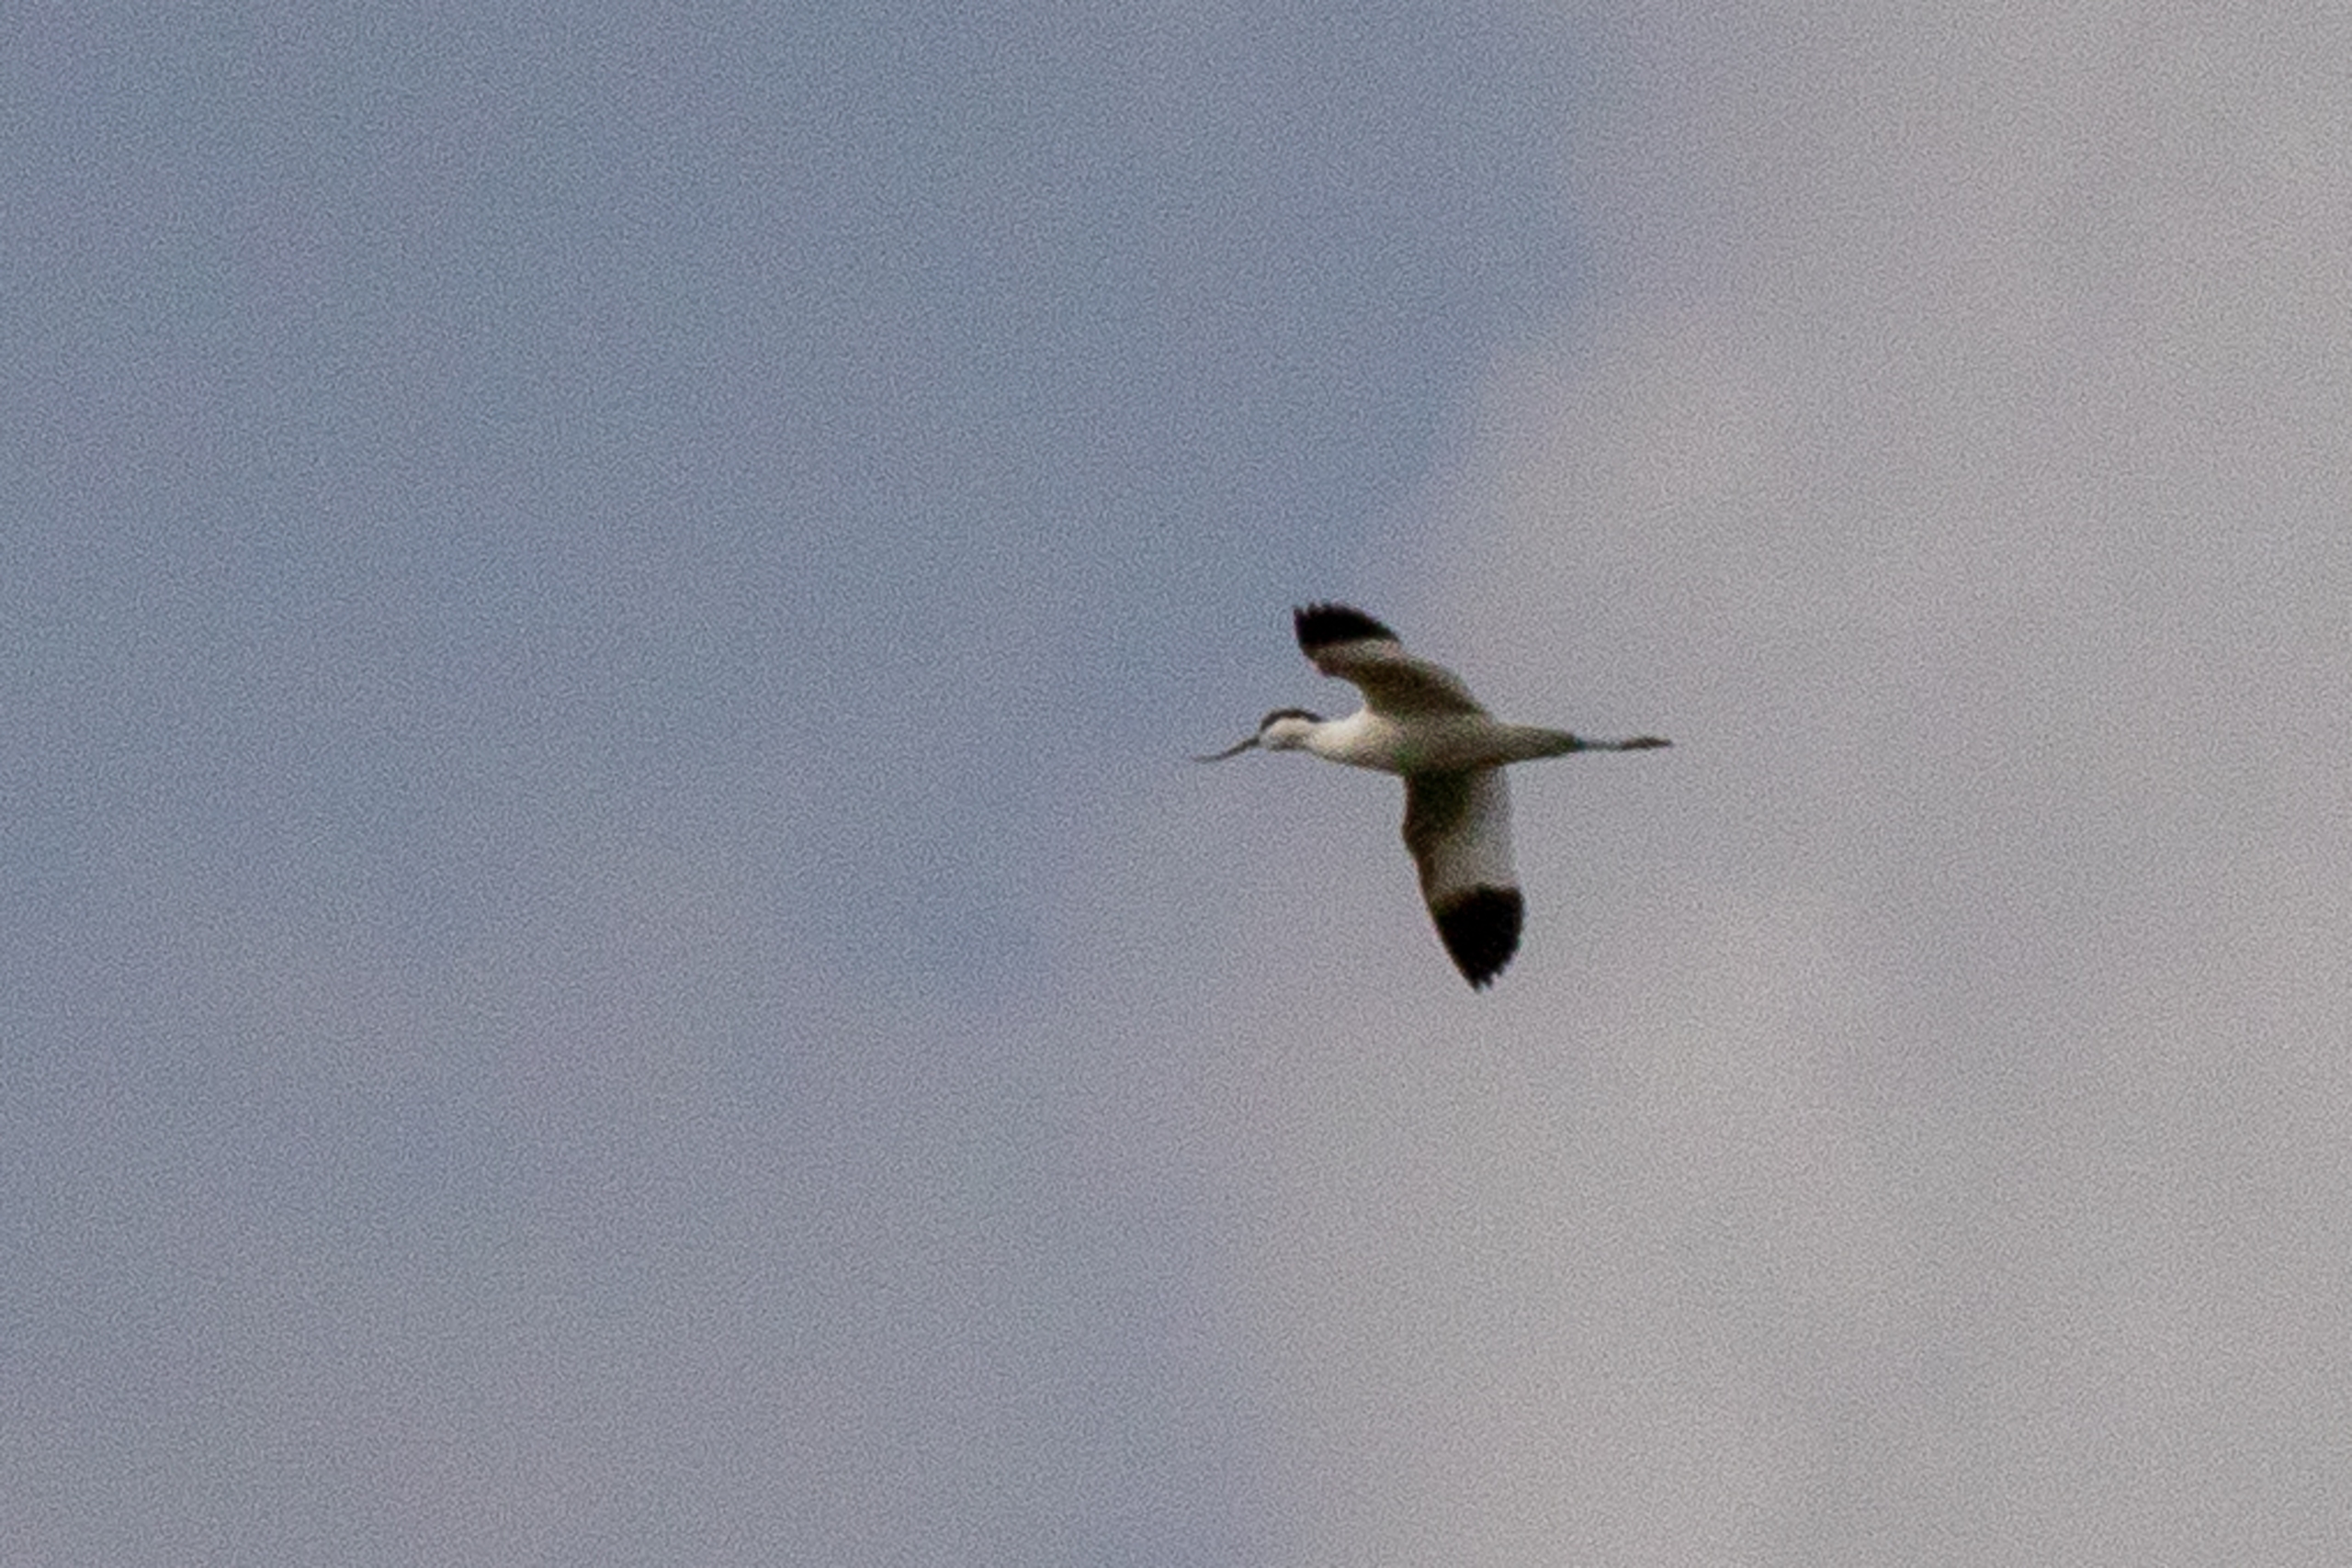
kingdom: Animalia
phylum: Chordata
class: Aves
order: Charadriiformes
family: Recurvirostridae
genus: Recurvirostra
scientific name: Recurvirostra avosetta
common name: Klyde
